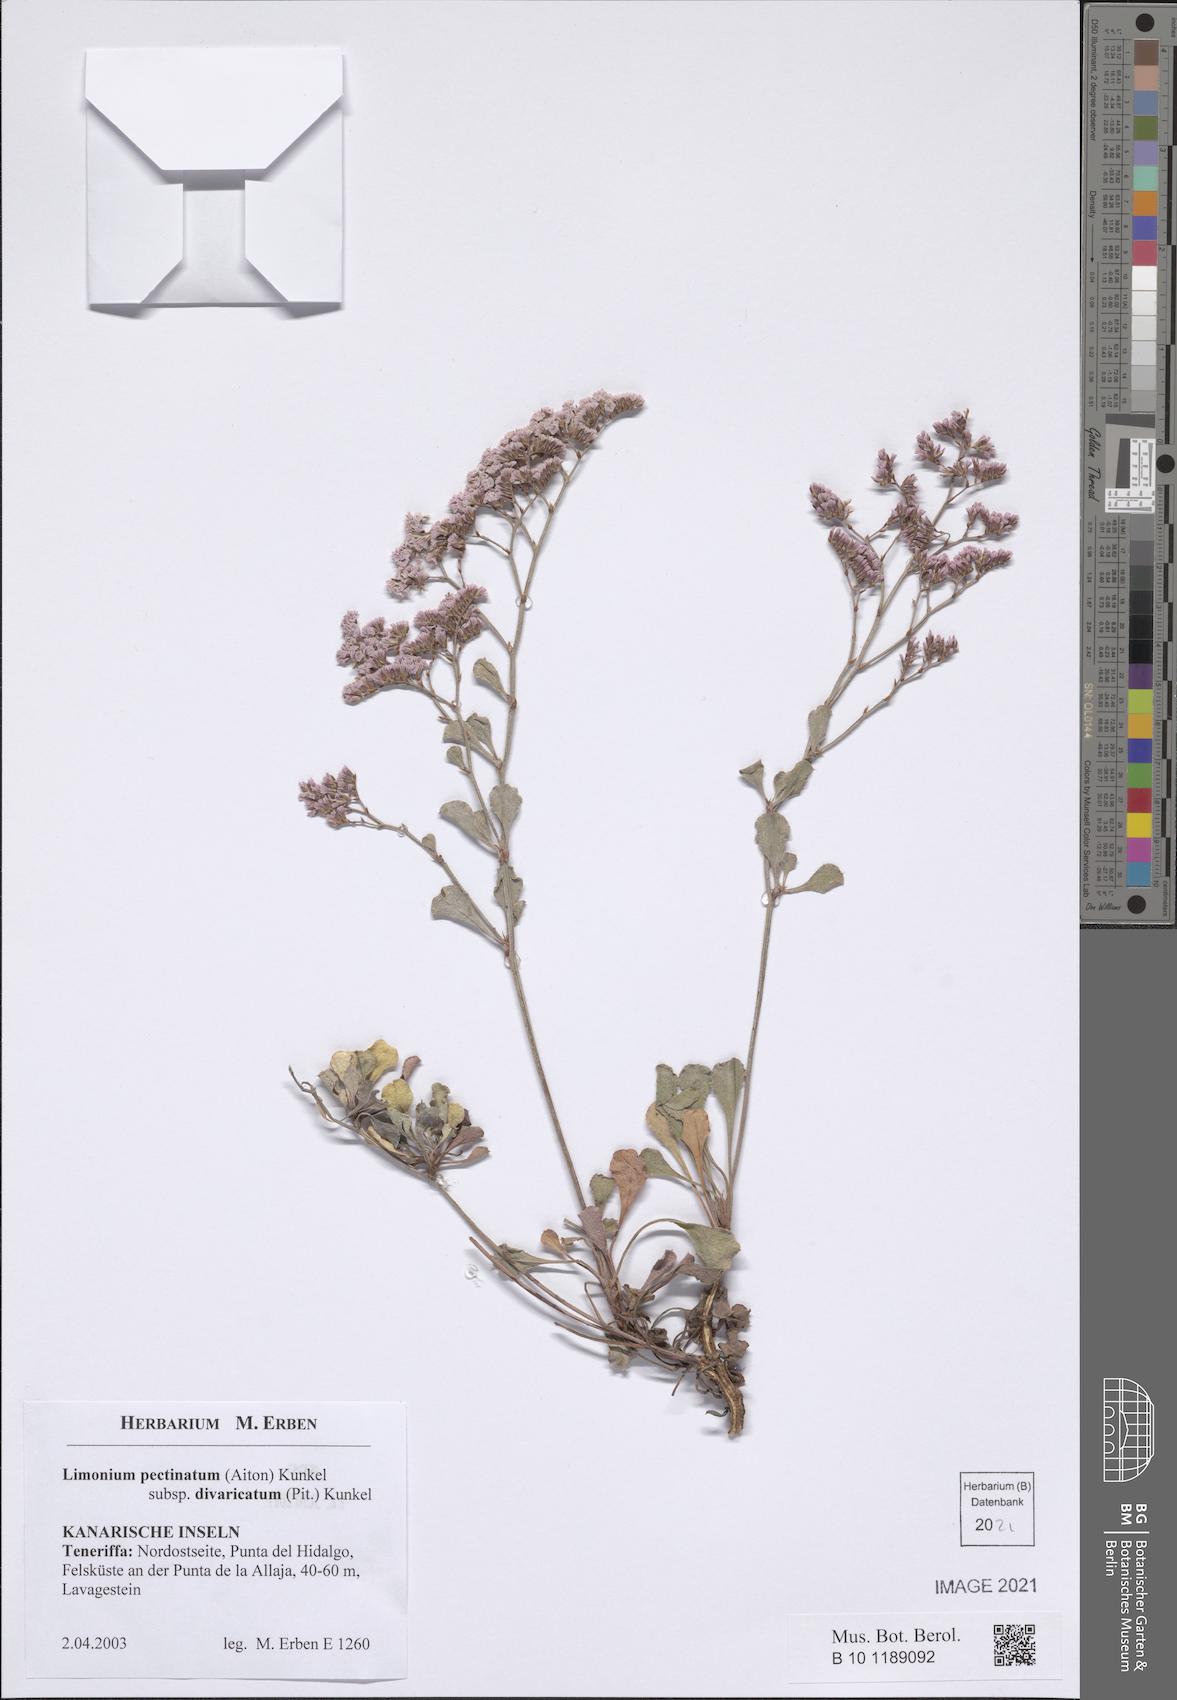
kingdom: Plantae
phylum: Tracheophyta
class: Magnoliopsida
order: Caryophyllales
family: Plumbaginaceae
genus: Limonium
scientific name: Limonium pectinatum
